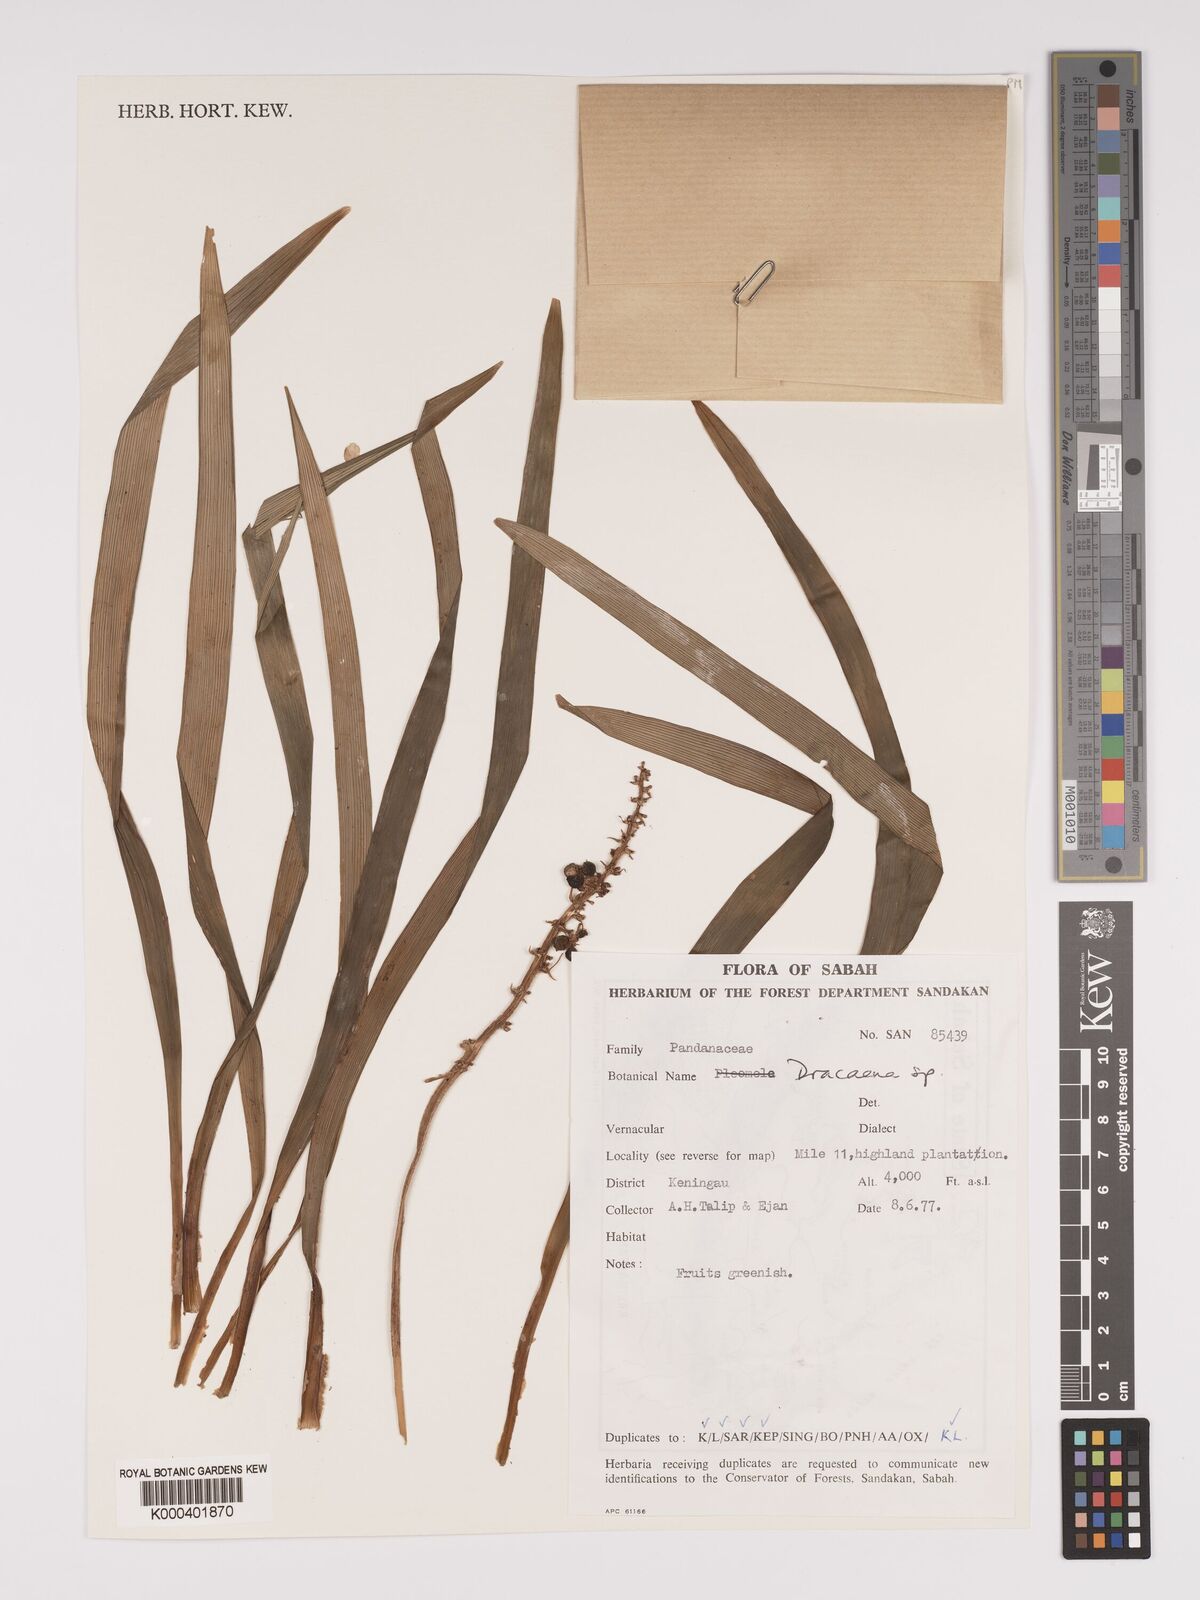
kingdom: Plantae
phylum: Tracheophyta
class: Liliopsida
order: Asparagales
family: Asparagaceae
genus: Dracaena
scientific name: Dracaena
